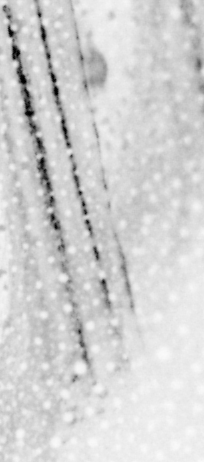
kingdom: Animalia
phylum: Chordata
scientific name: Chordata
